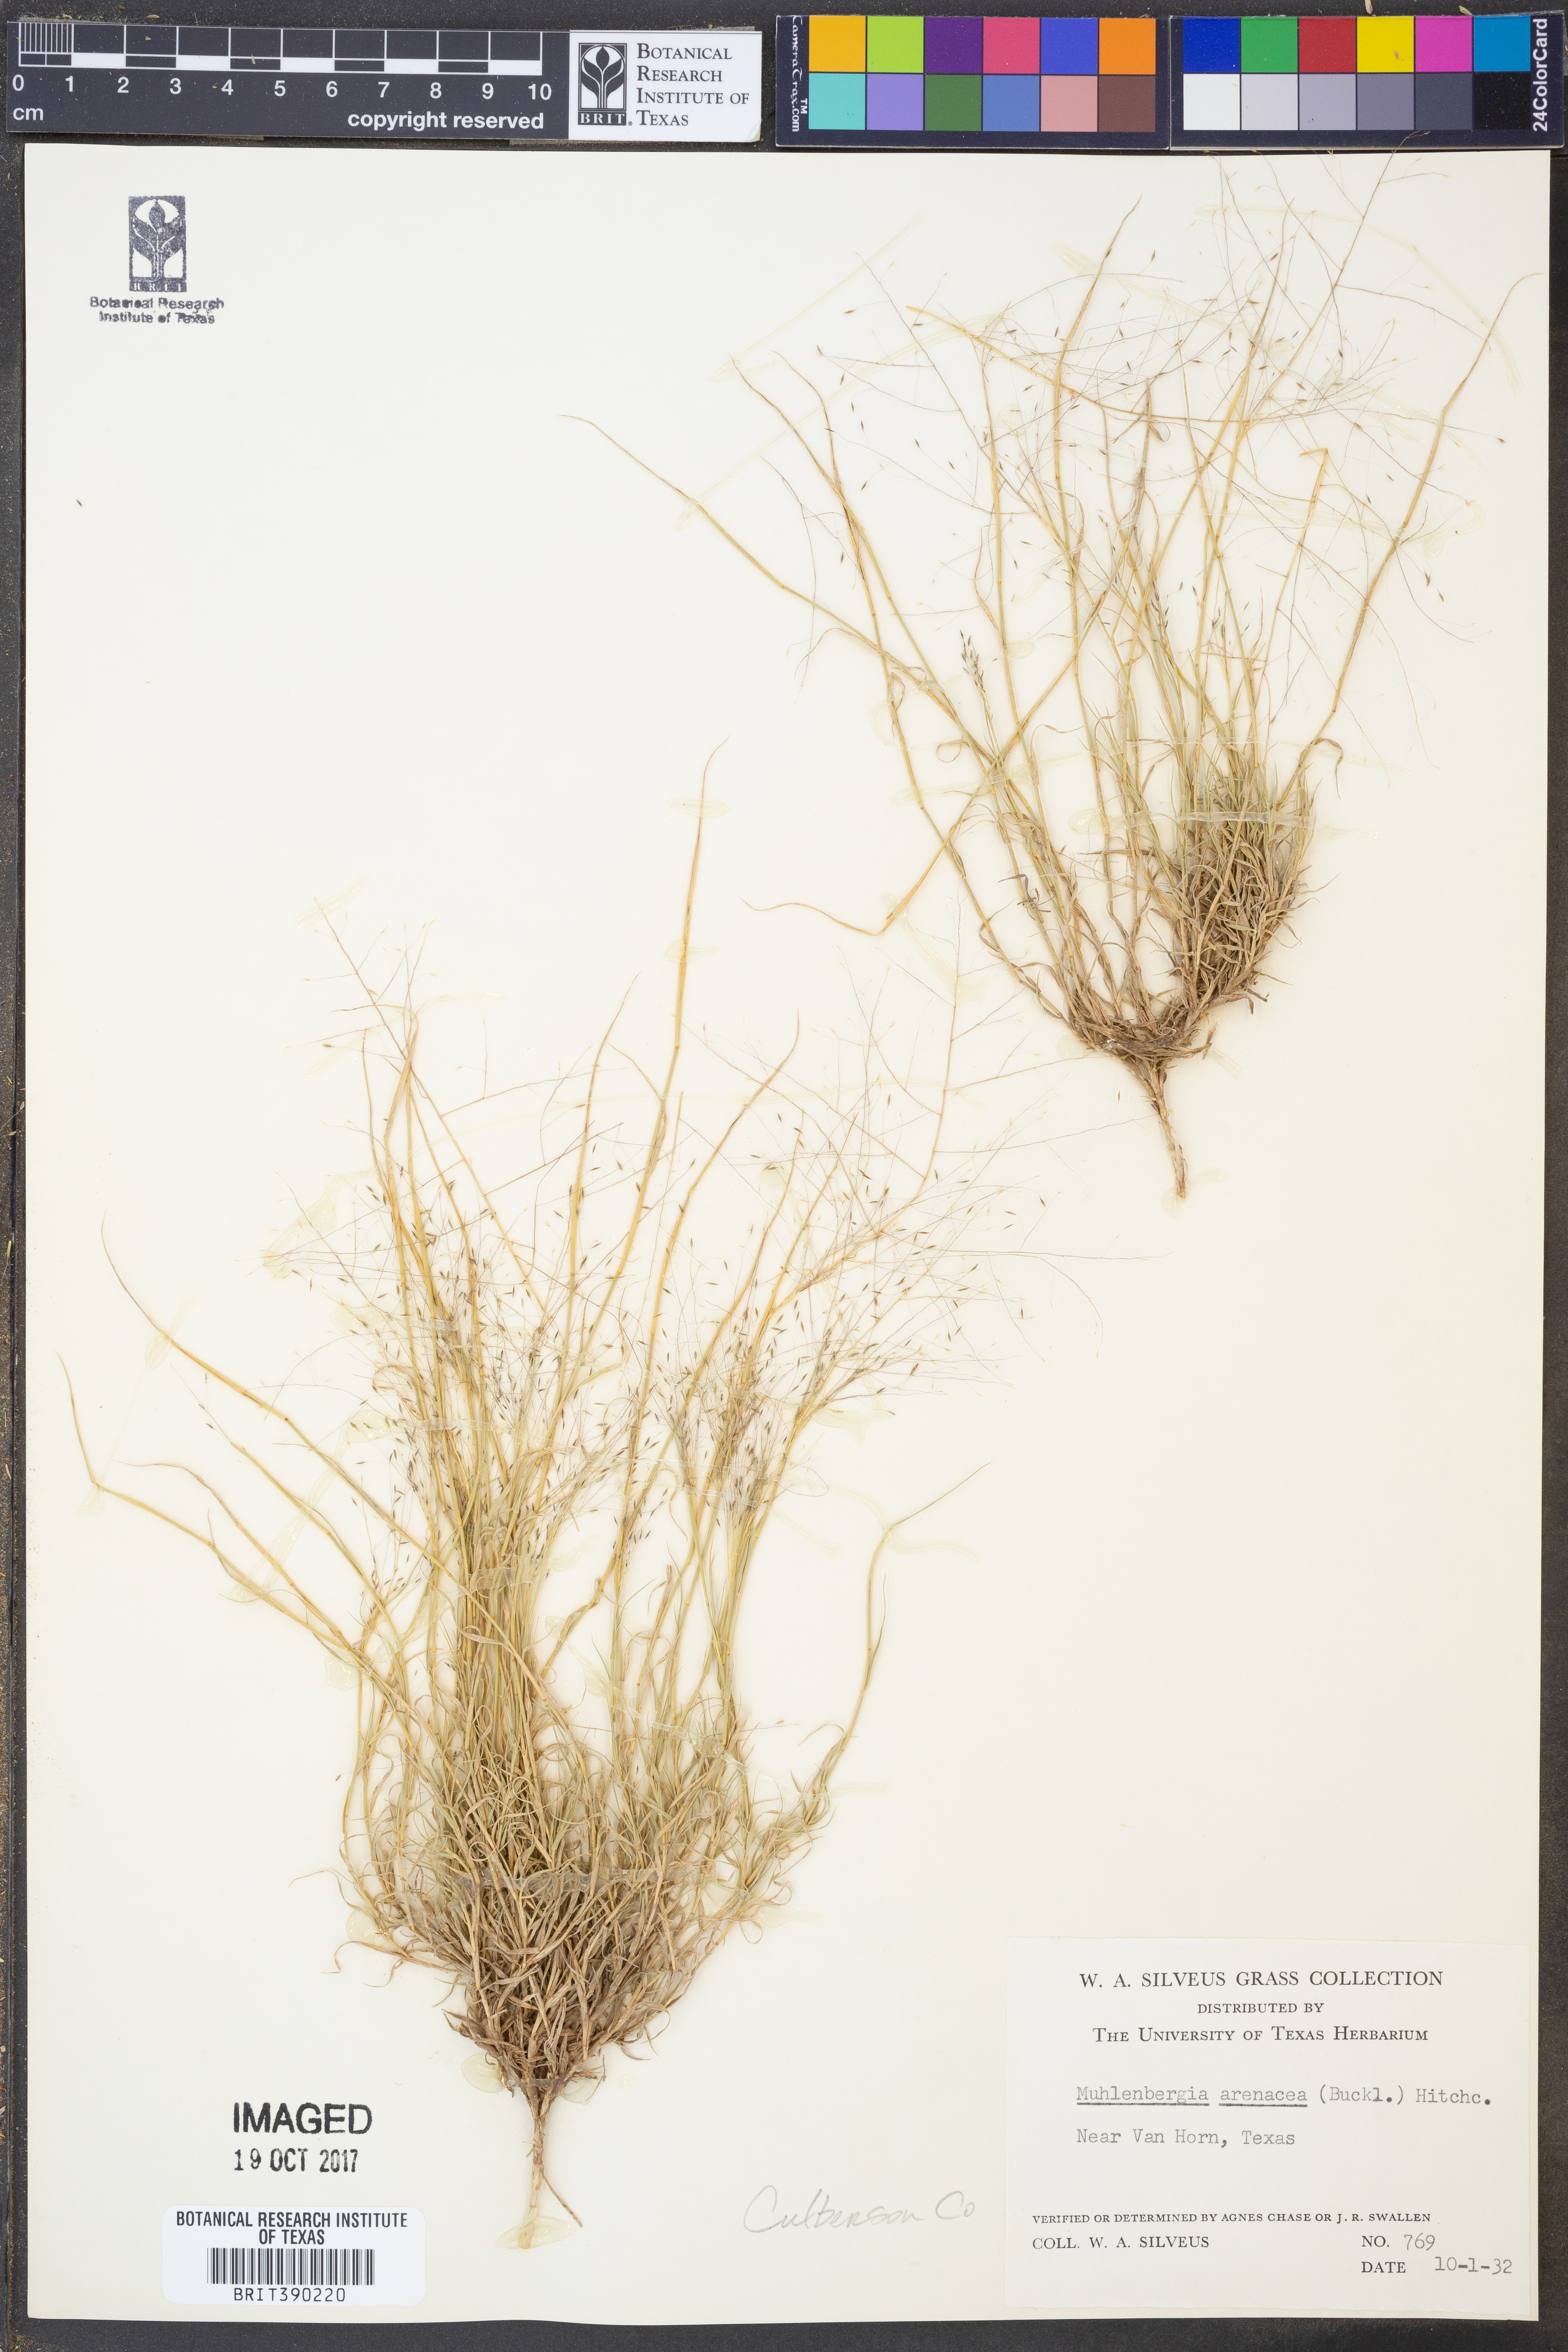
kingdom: Plantae
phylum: Tracheophyta
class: Liliopsida
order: Poales
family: Poaceae
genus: Muhlenbergia
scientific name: Muhlenbergia arenacea
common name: Ear muhly
